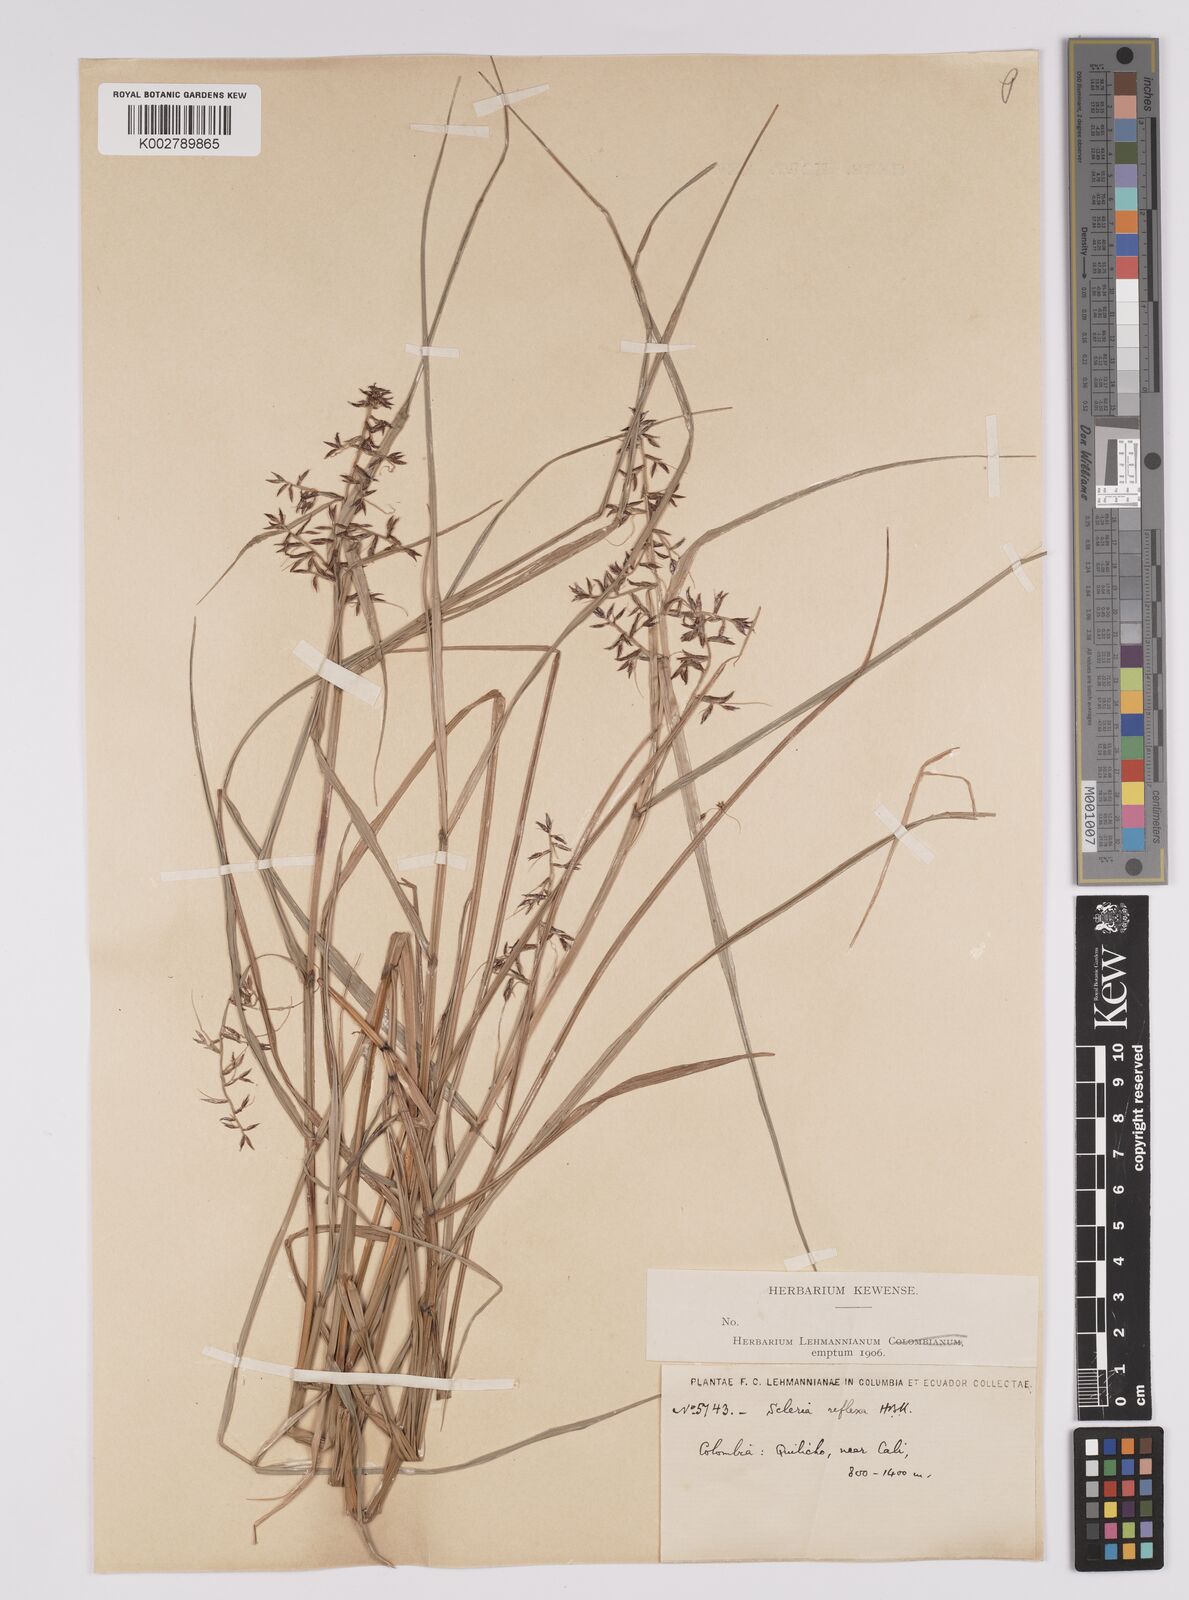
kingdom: Plantae
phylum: Tracheophyta
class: Liliopsida
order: Poales
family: Cyperaceae
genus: Scleria
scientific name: Scleria
